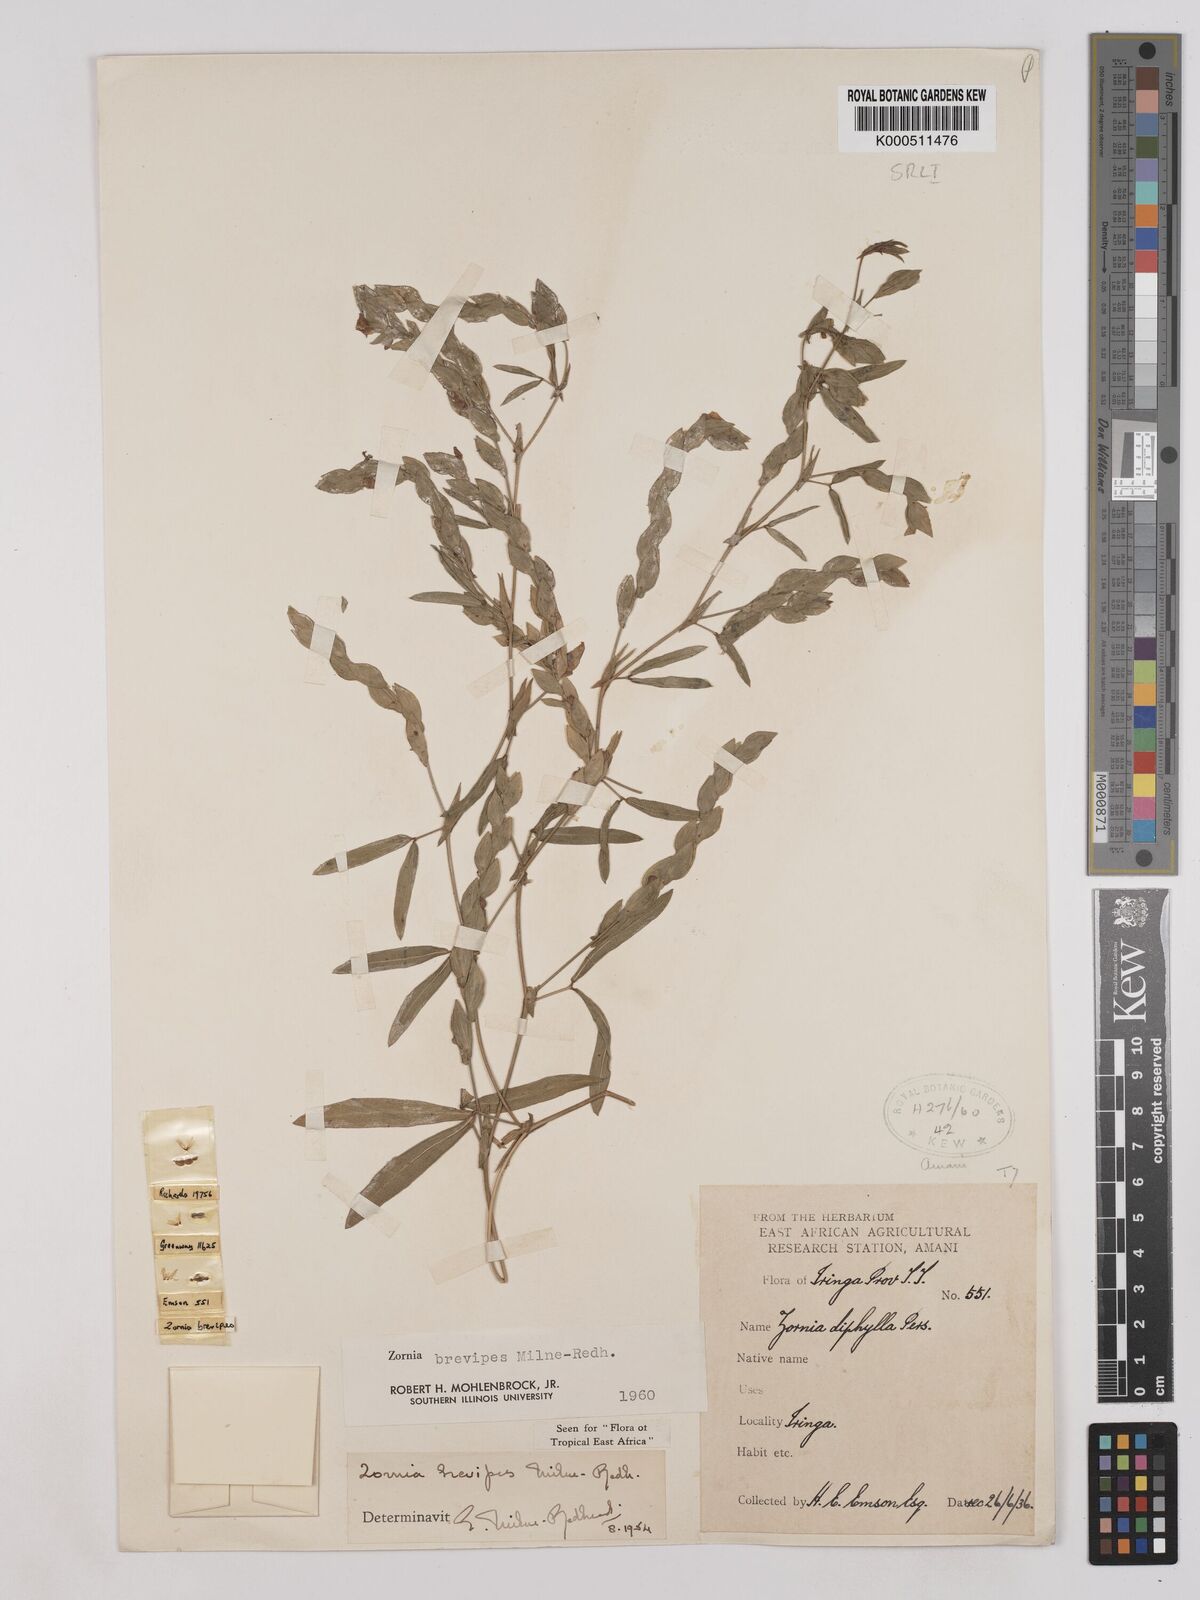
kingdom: Plantae
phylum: Tracheophyta
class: Magnoliopsida
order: Fabales
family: Fabaceae
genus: Zornia
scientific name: Zornia brevipes
